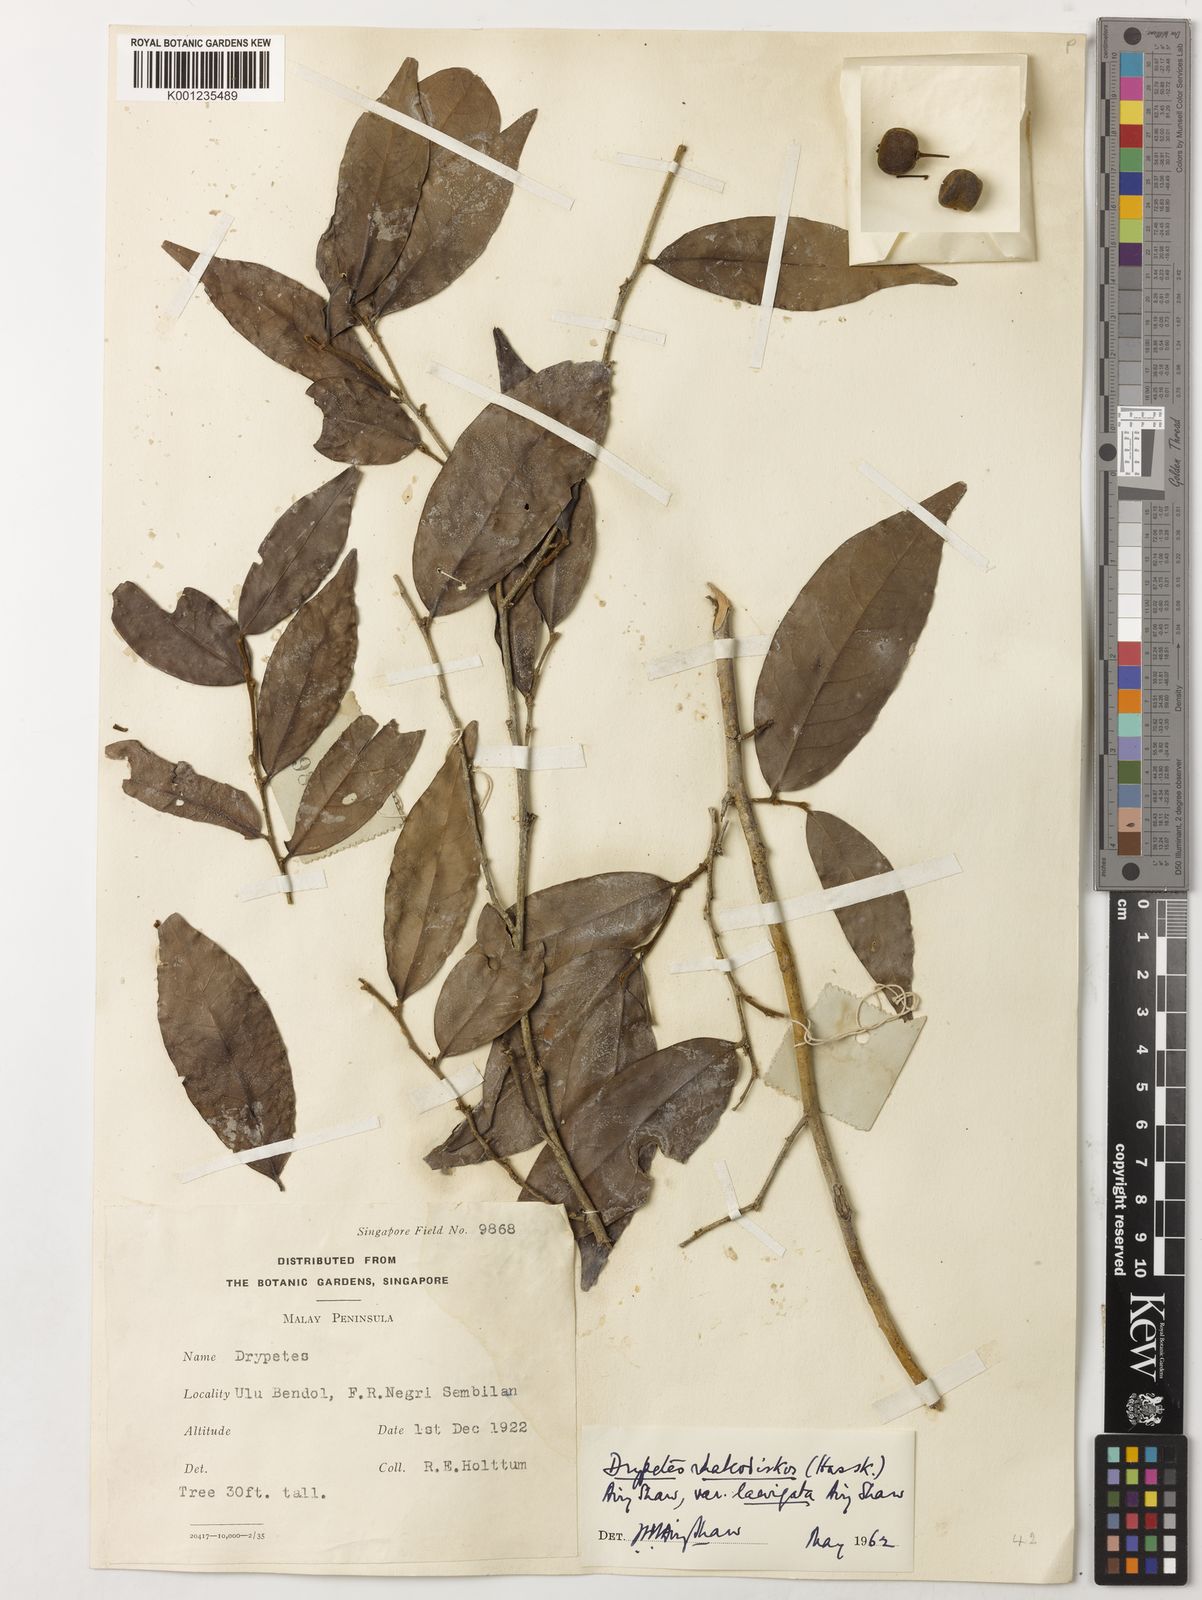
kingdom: Plantae
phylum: Tracheophyta
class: Magnoliopsida
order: Malpighiales
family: Putranjivaceae
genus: Drypetes
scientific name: Drypetes rhakodiskos
